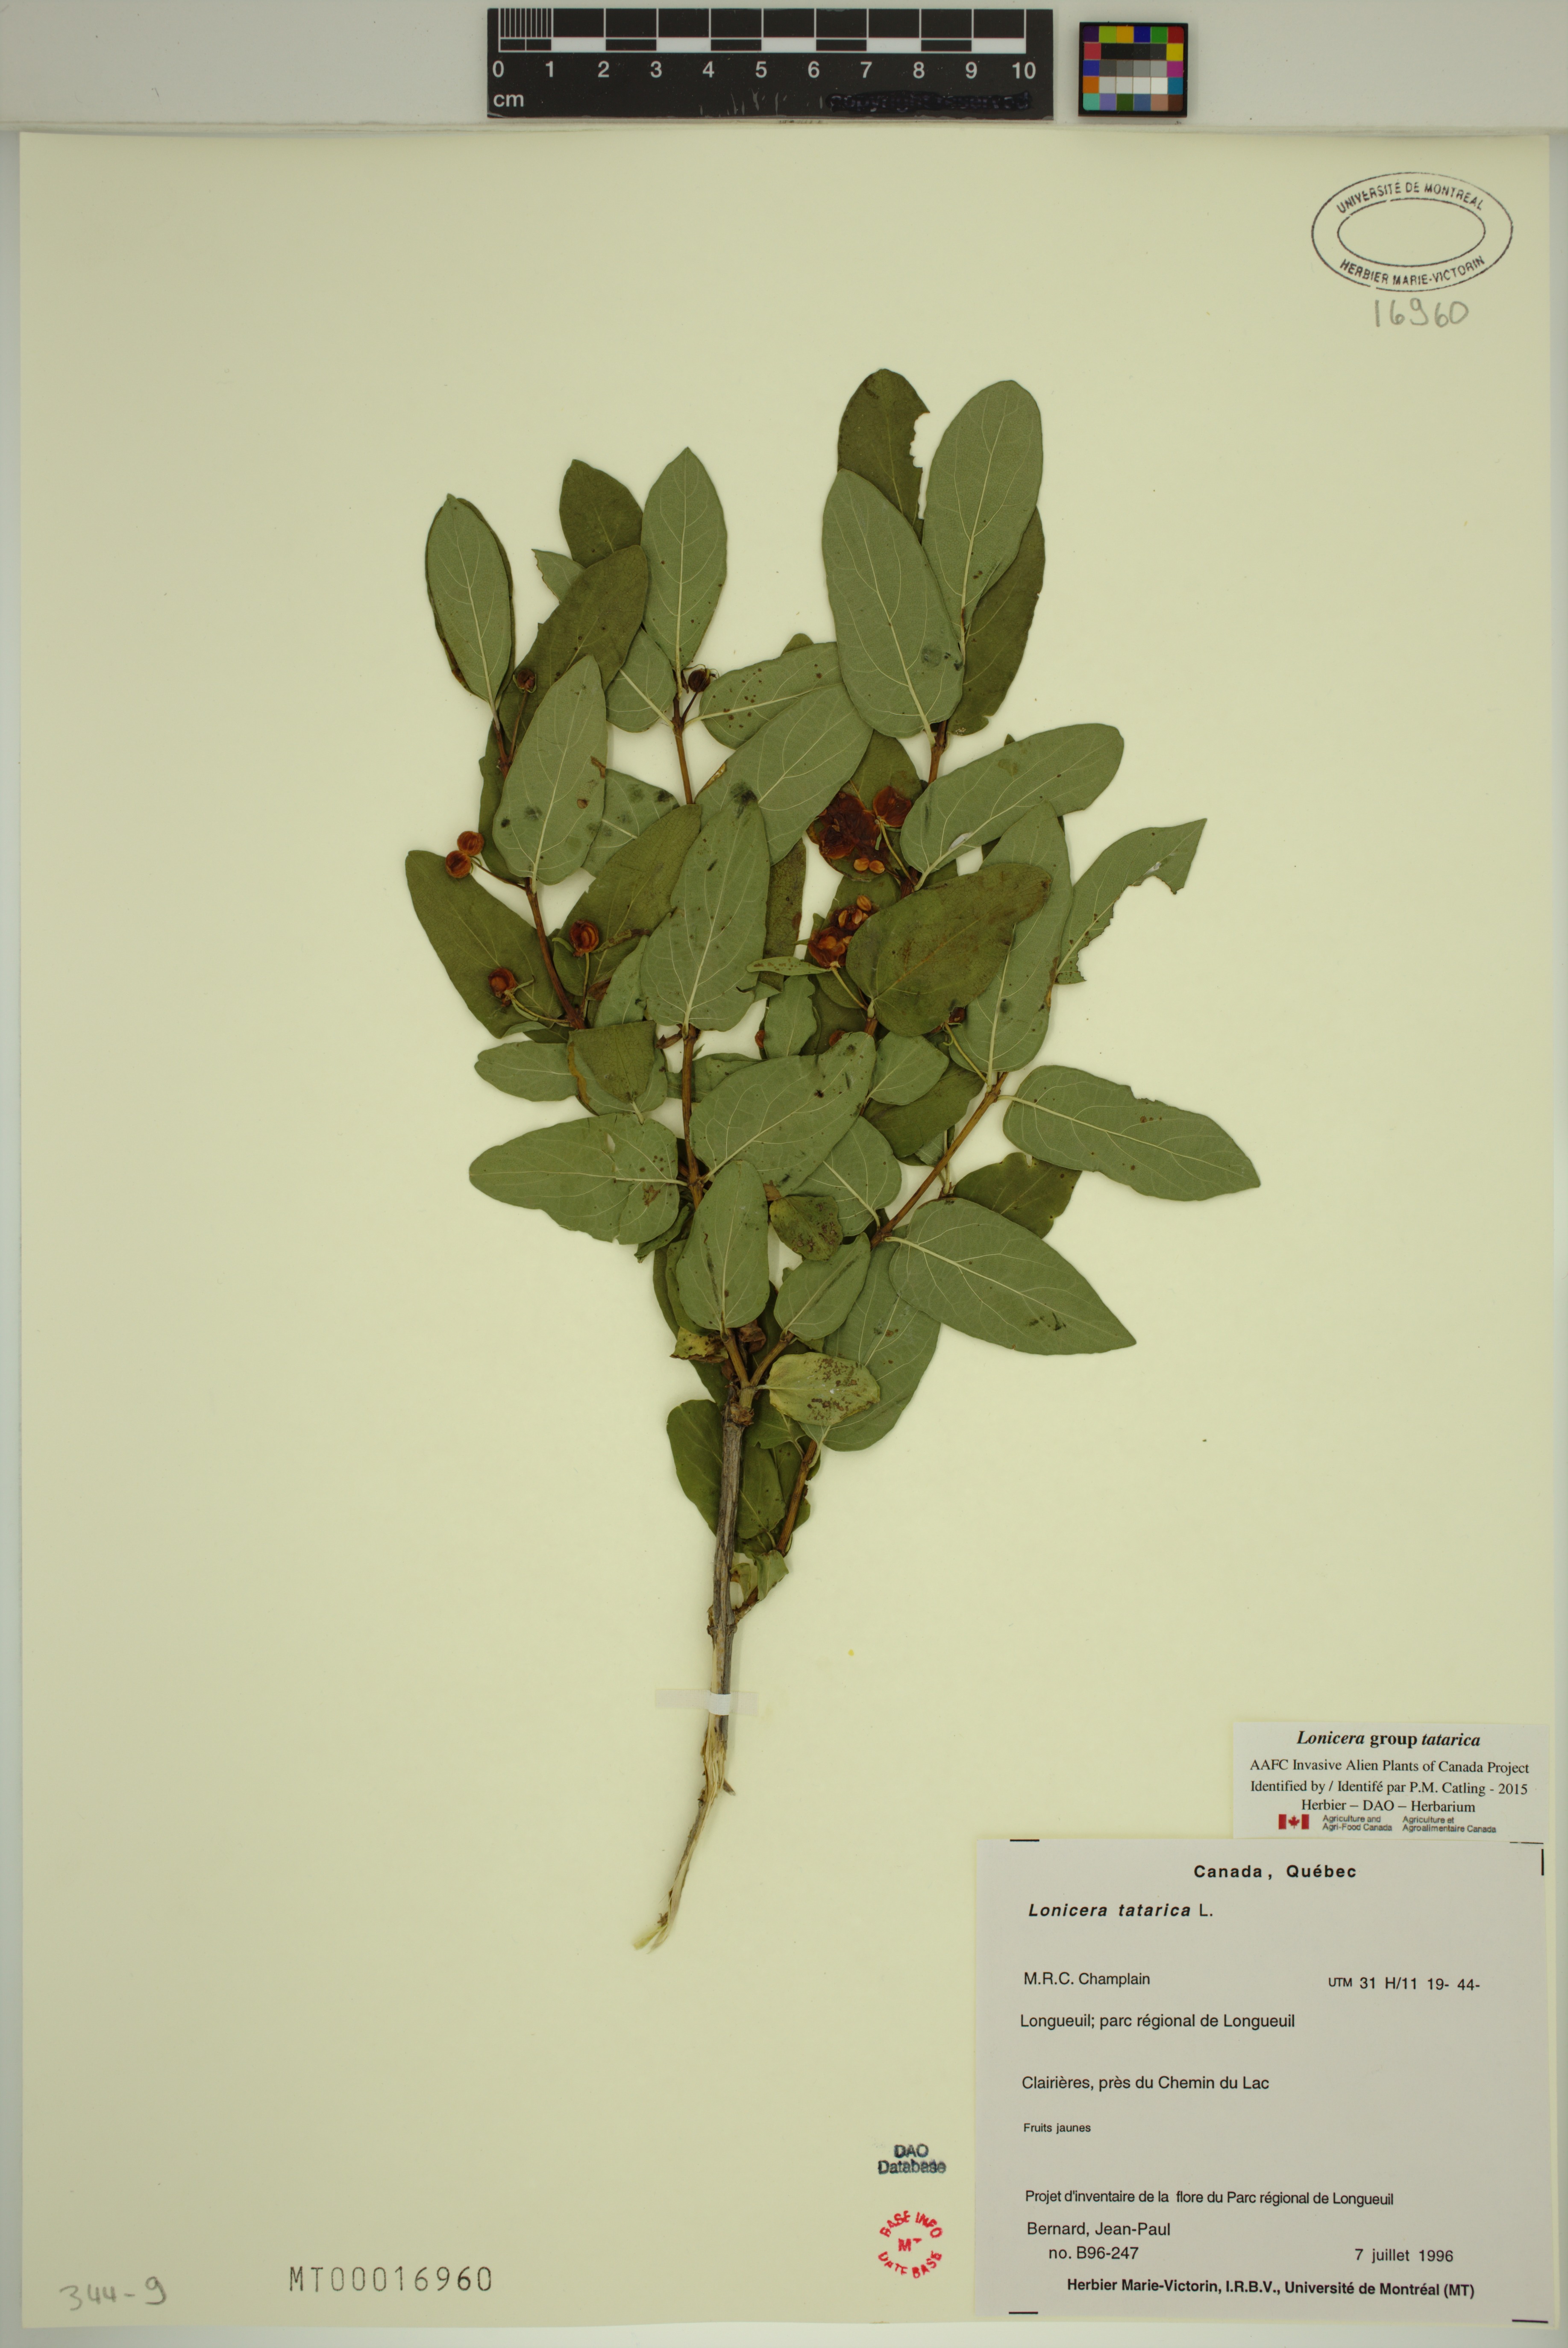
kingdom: Plantae
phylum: Tracheophyta
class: Magnoliopsida
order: Dipsacales
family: Caprifoliaceae
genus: Lonicera
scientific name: Lonicera tatarica
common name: Tatarian honeysuckle
